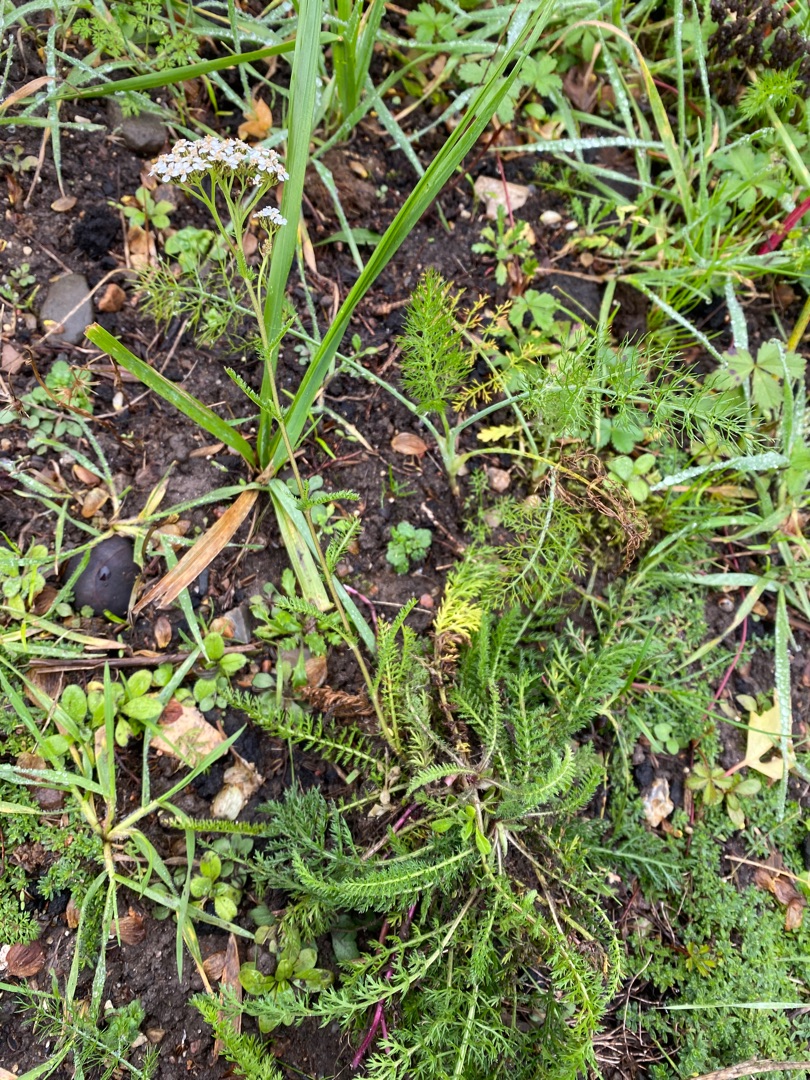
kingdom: Plantae
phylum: Tracheophyta
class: Magnoliopsida
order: Asterales
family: Asteraceae
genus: Achillea
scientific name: Achillea millefolium
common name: Almindelig røllike
